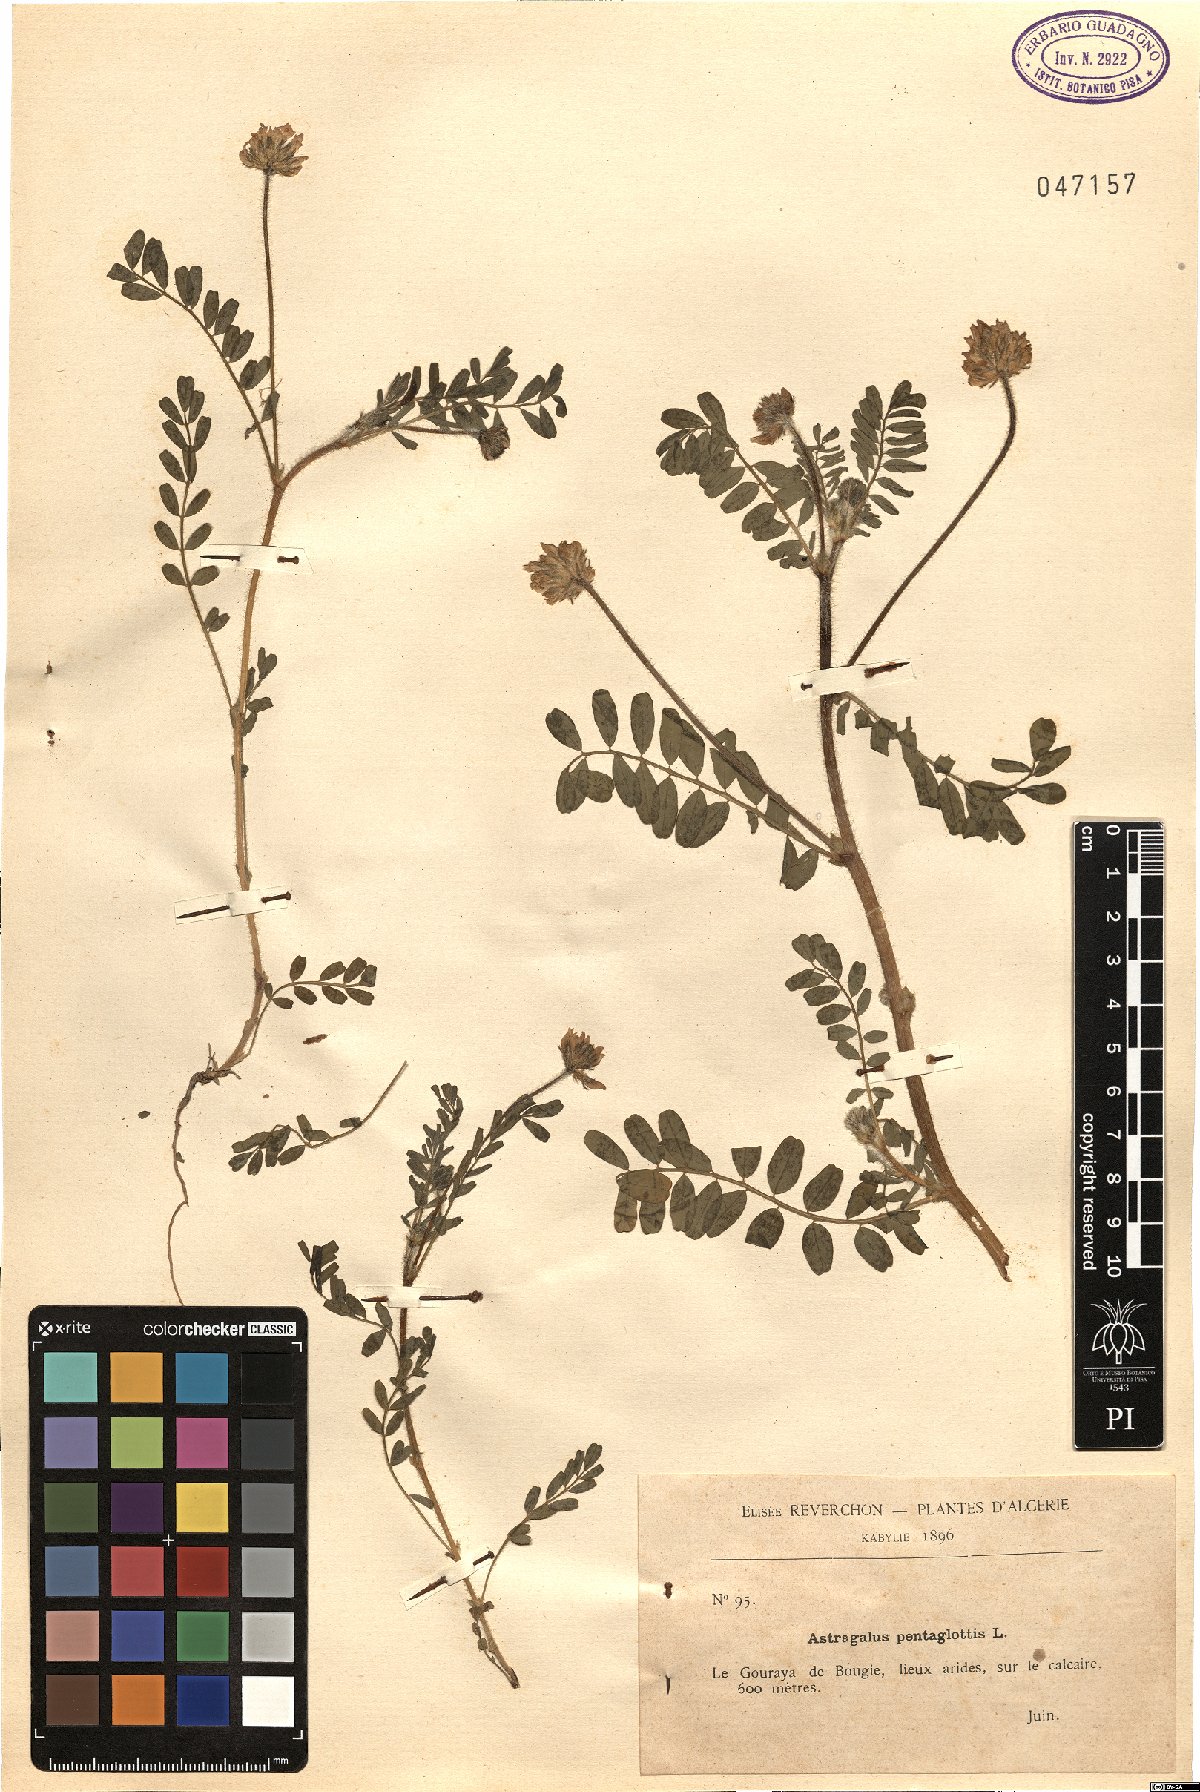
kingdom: Plantae
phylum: Tracheophyta
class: Magnoliopsida
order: Fabales
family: Fabaceae
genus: Astragalus
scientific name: Astragalus echinatus
